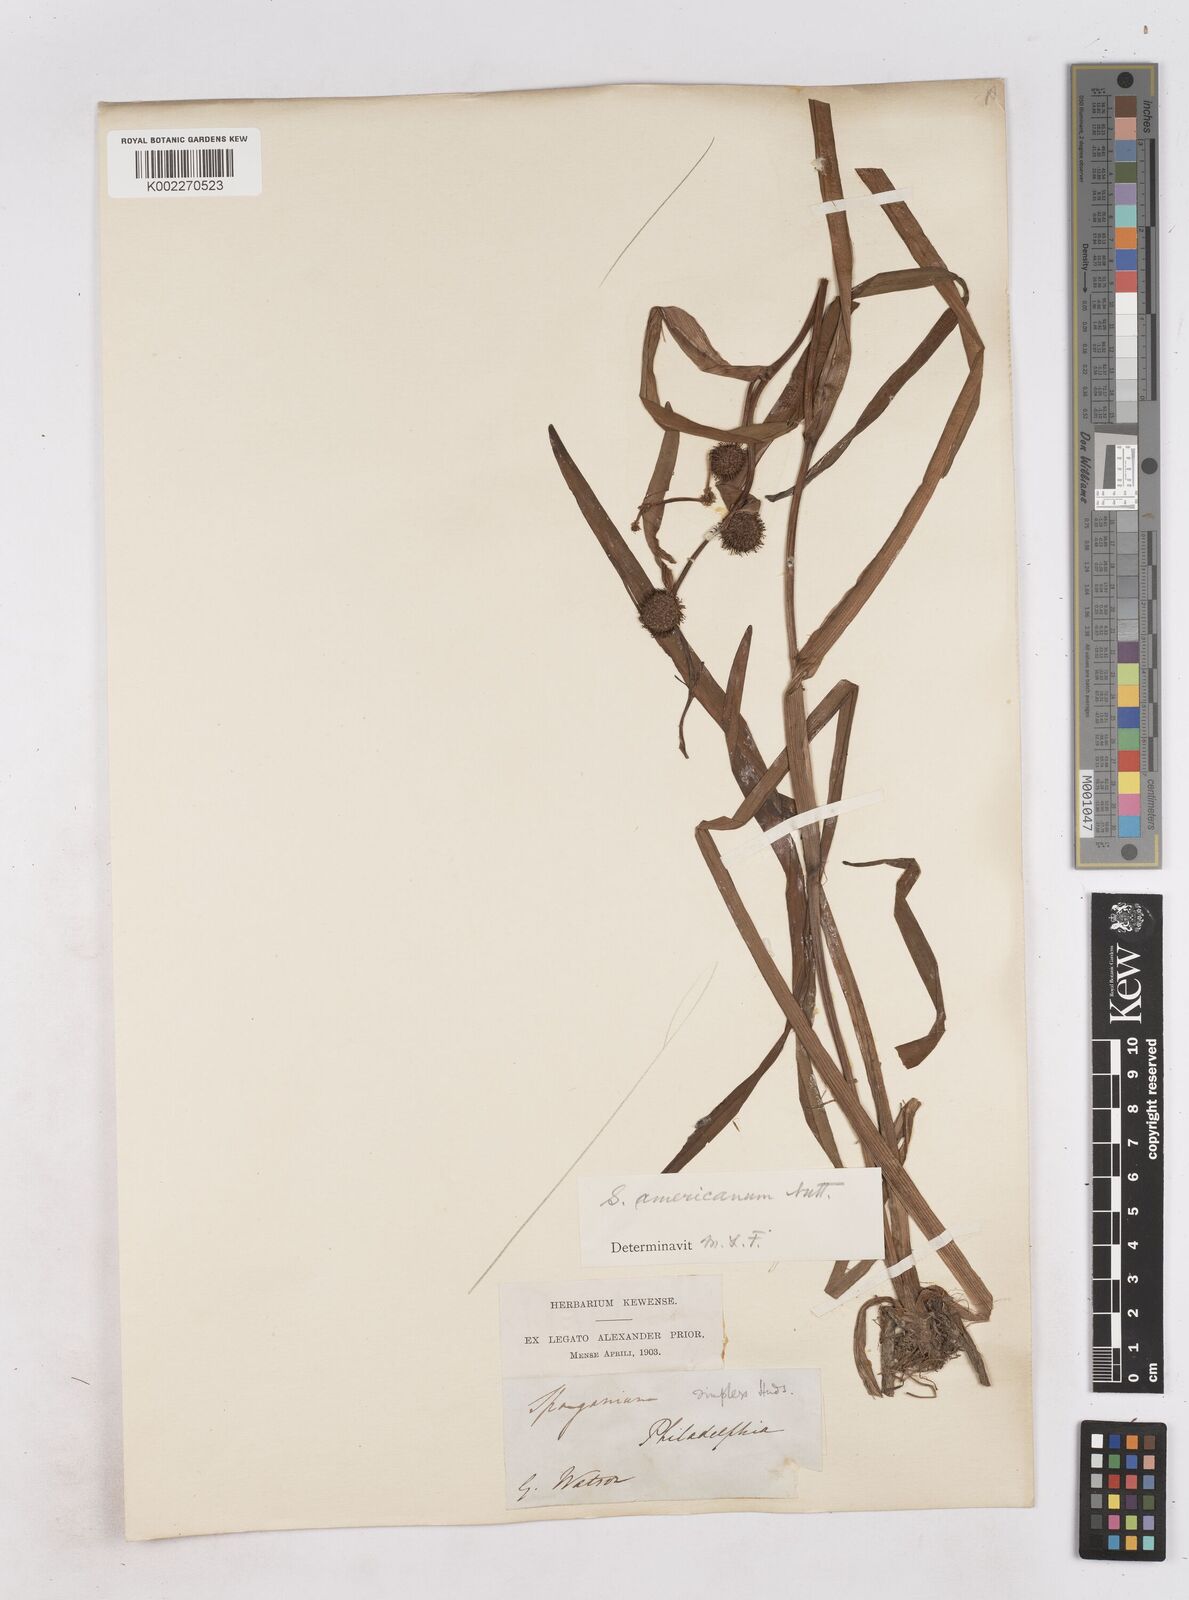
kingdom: Plantae
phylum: Tracheophyta
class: Liliopsida
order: Poales
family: Typhaceae
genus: Sparganium
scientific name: Sparganium americanum
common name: American burreed
